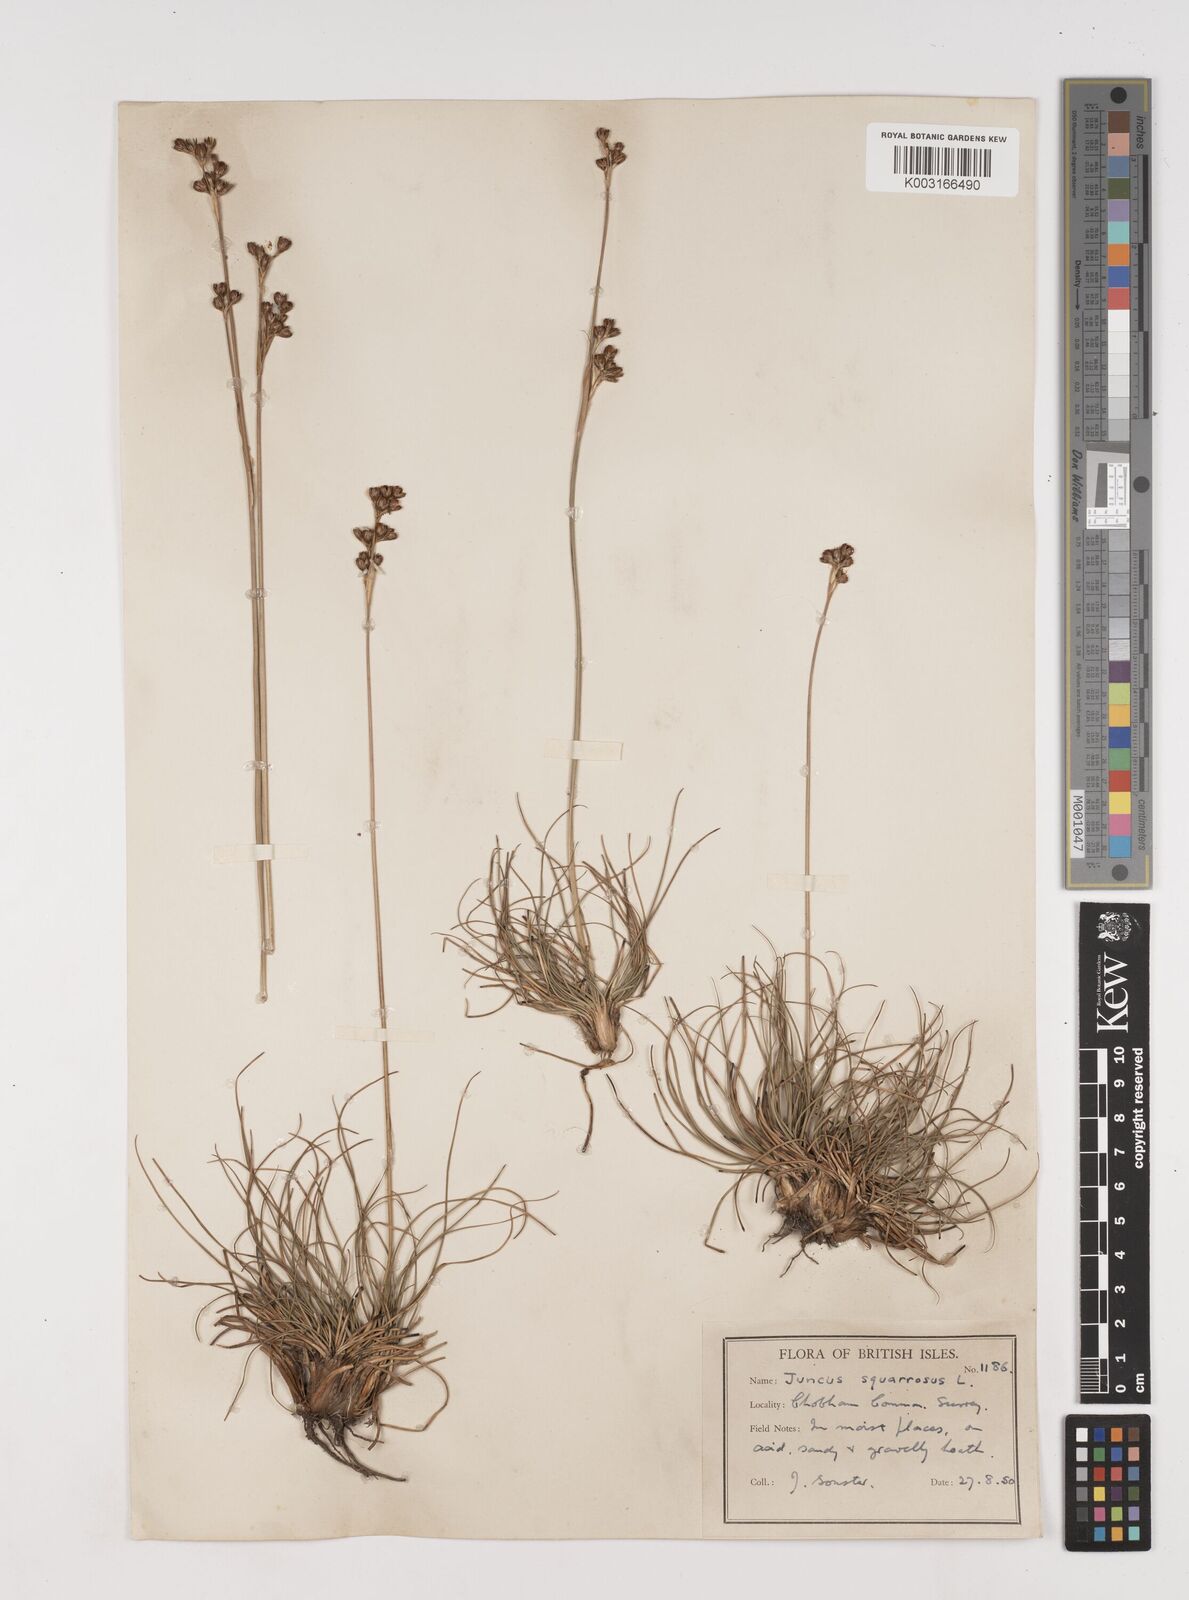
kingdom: Plantae
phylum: Tracheophyta
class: Liliopsida
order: Poales
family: Juncaceae
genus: Juncus
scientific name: Juncus squarrosus
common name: Heath rush
